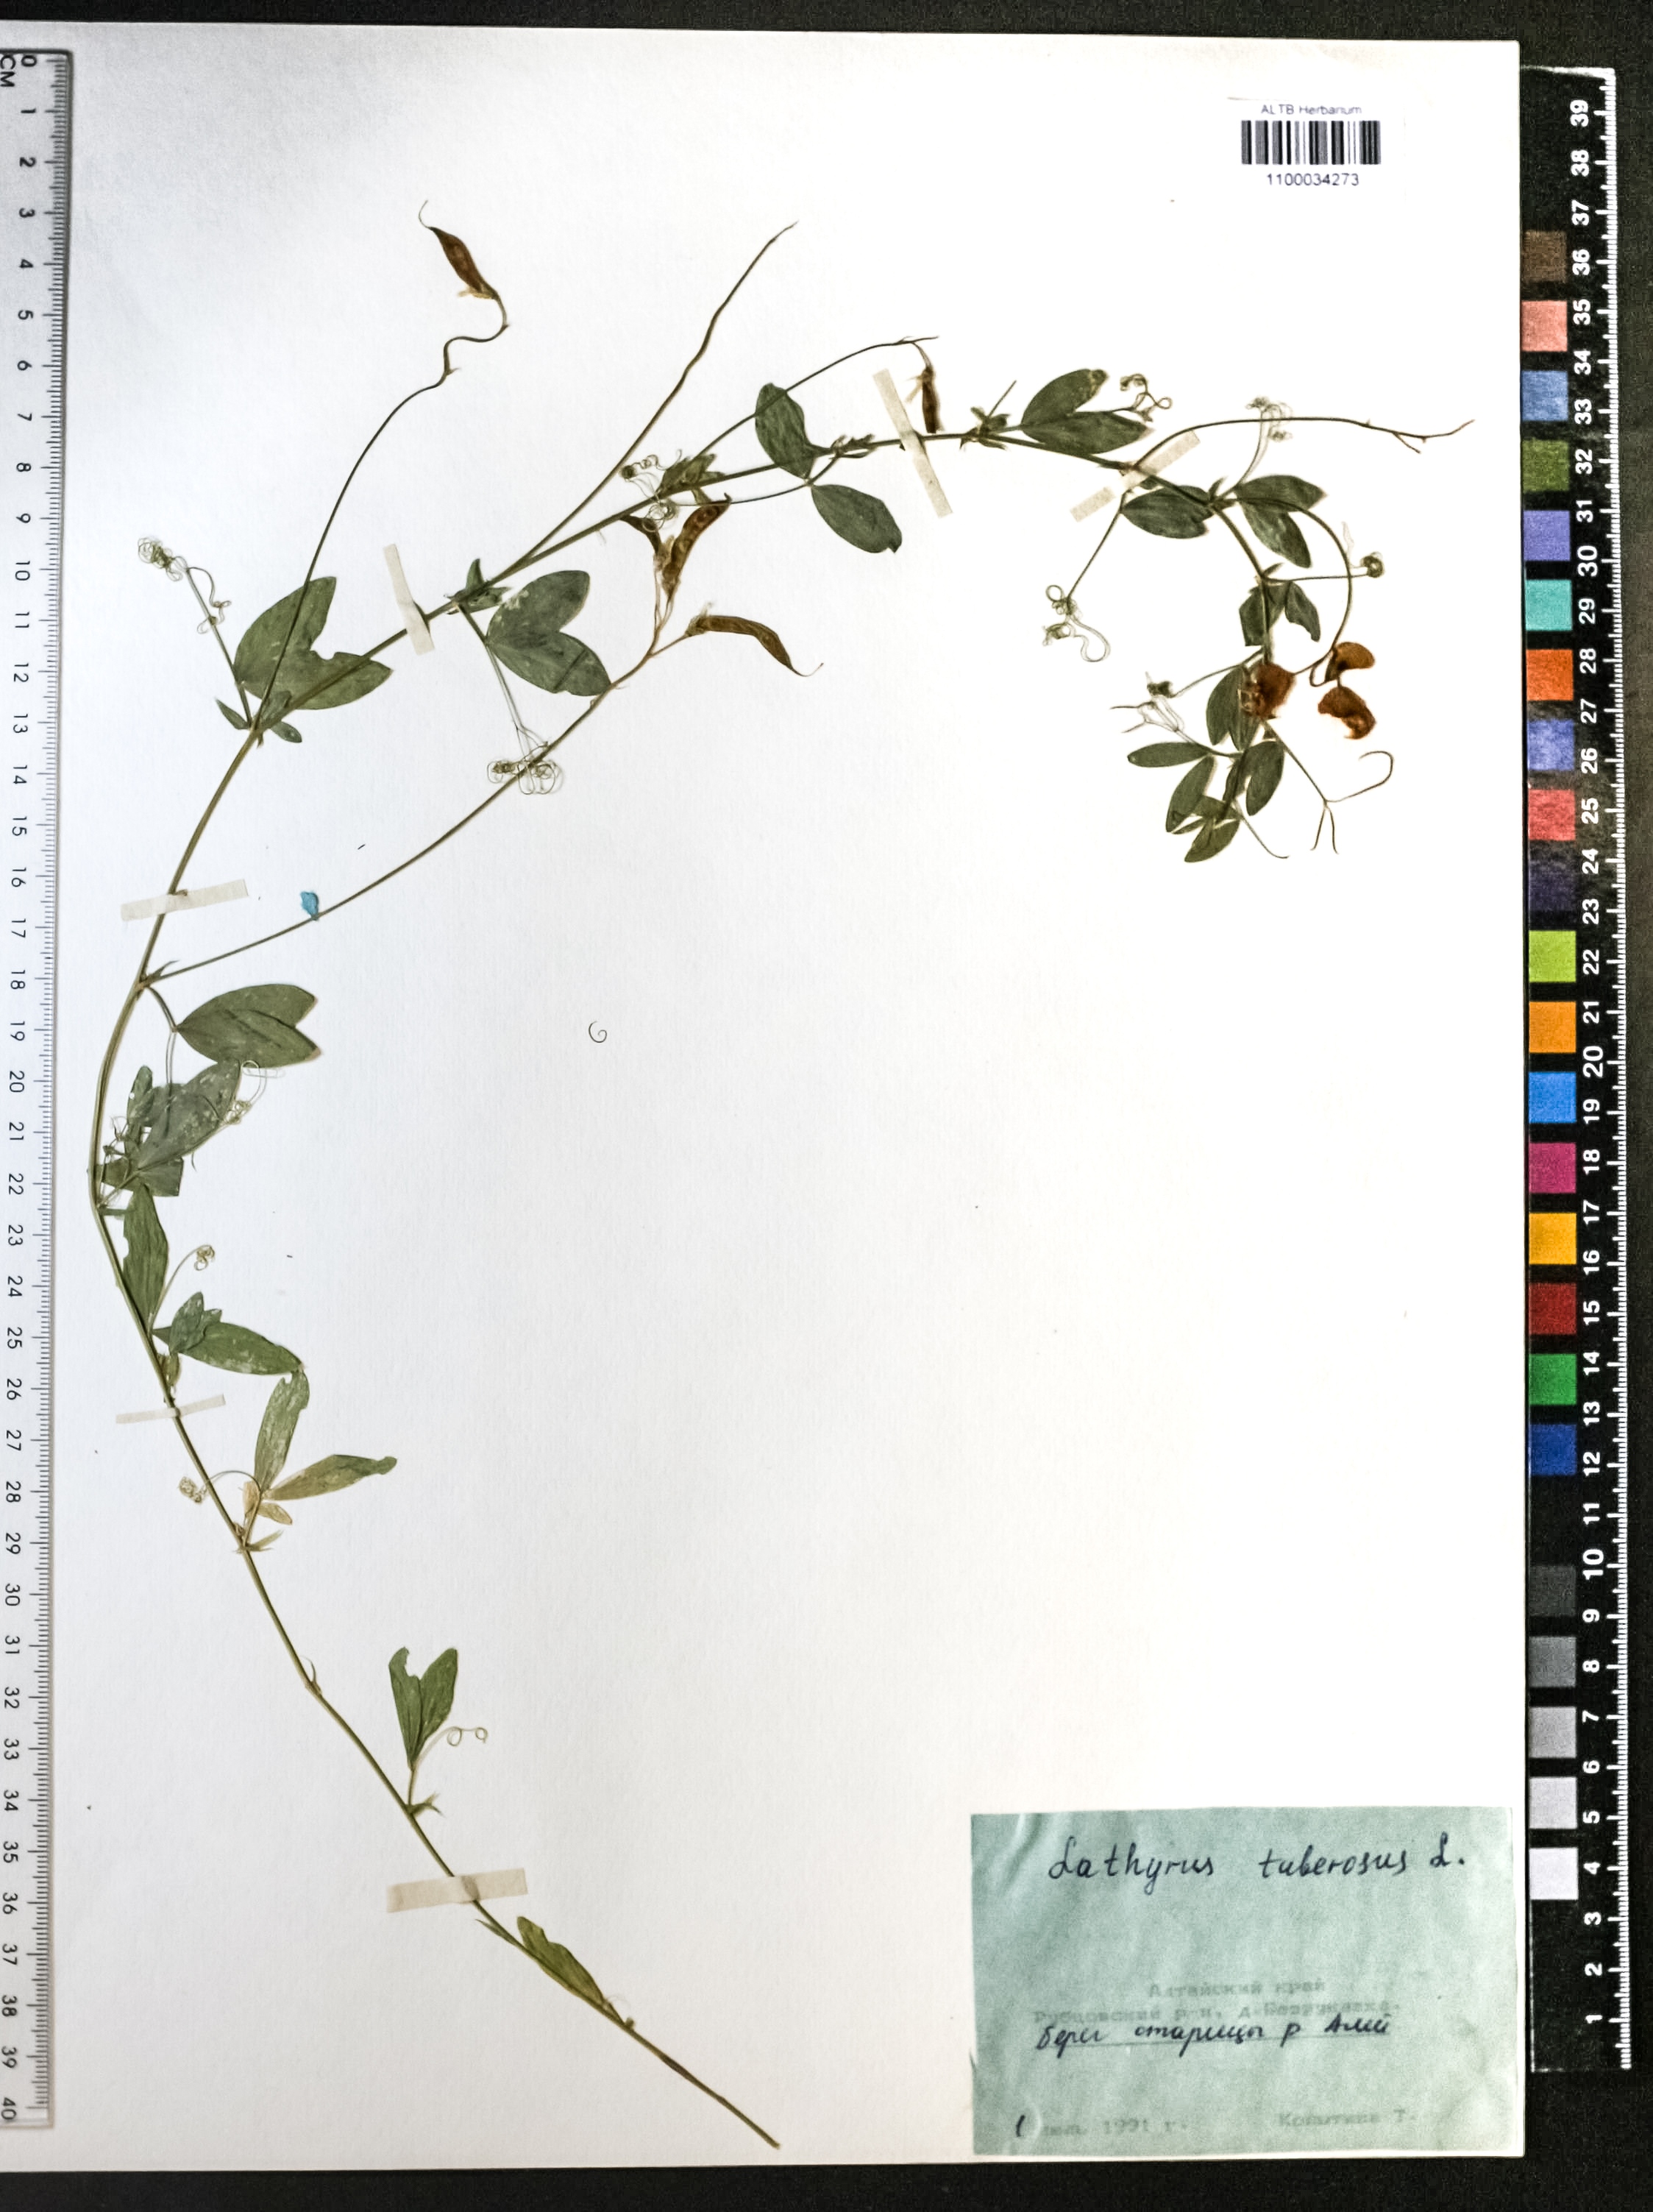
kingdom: Plantae
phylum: Tracheophyta
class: Magnoliopsida
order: Fabales
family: Fabaceae
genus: Lathyrus
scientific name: Lathyrus tuberosus
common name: Tuberous pea
